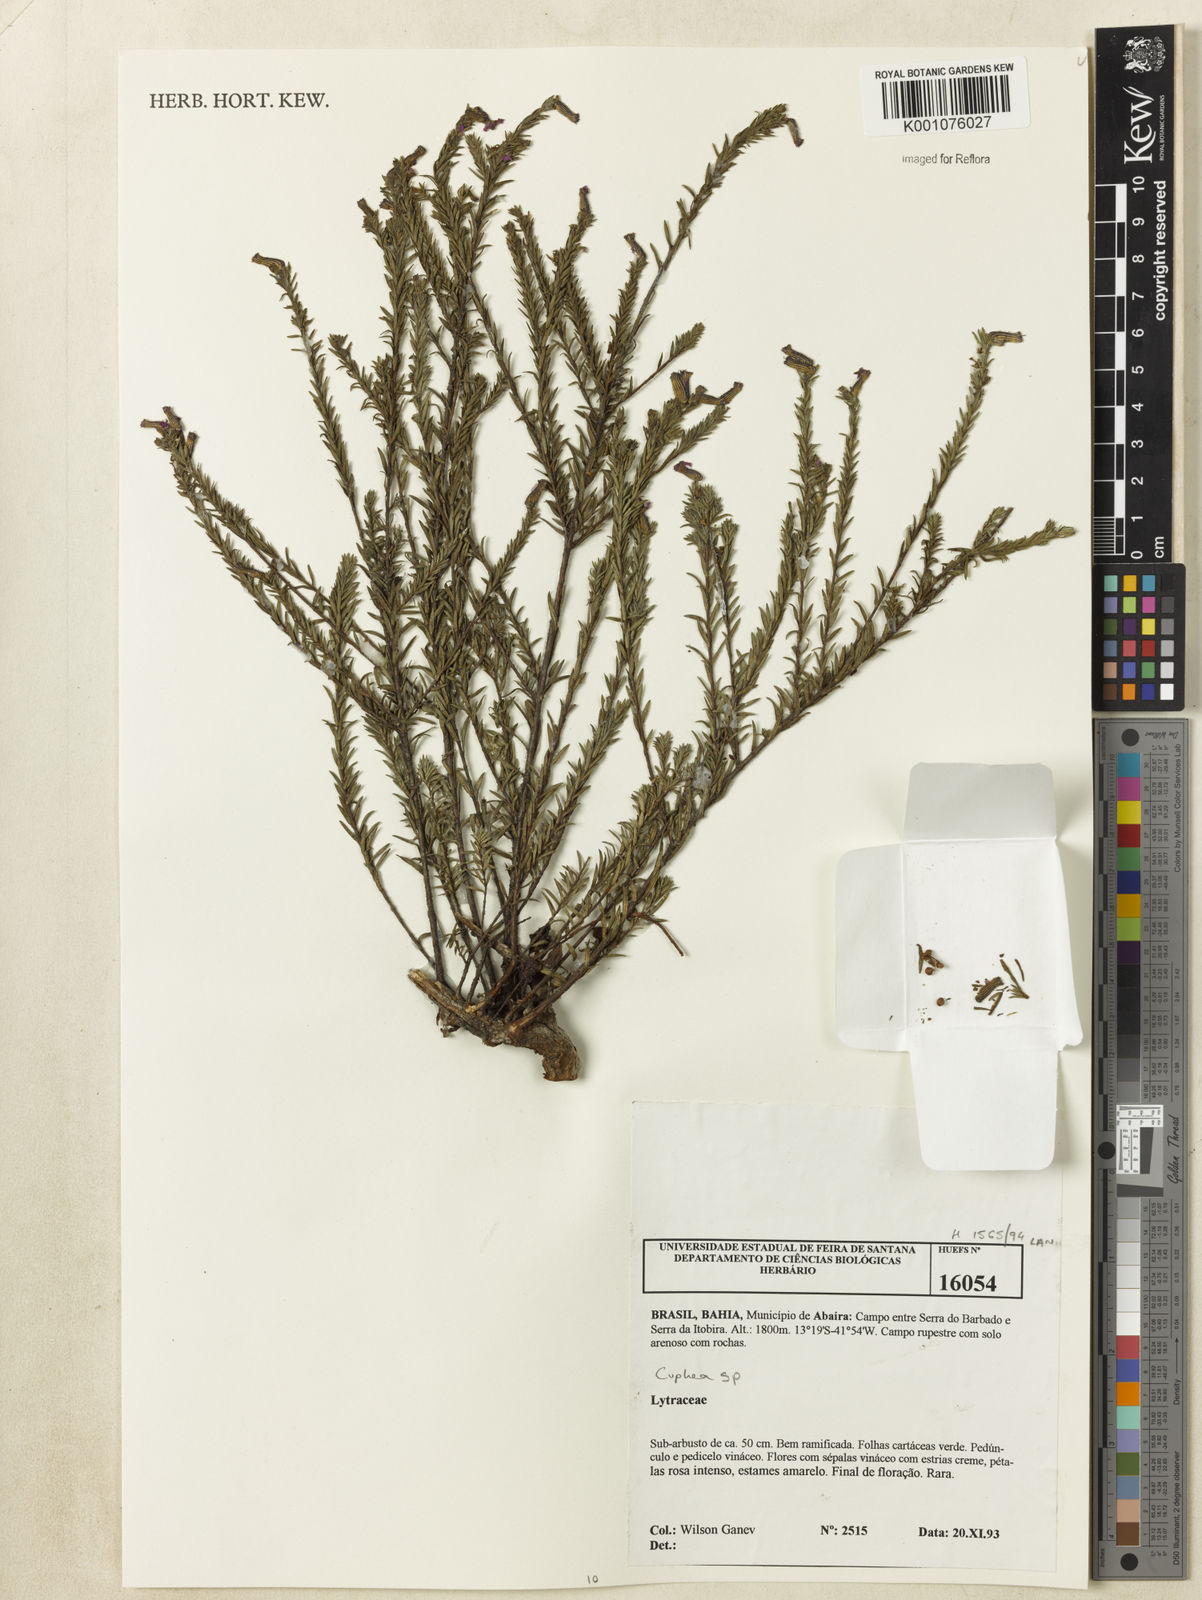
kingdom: Plantae
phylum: Tracheophyta
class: Magnoliopsida
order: Myrtales
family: Lythraceae
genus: Cuphea
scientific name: Cuphea
